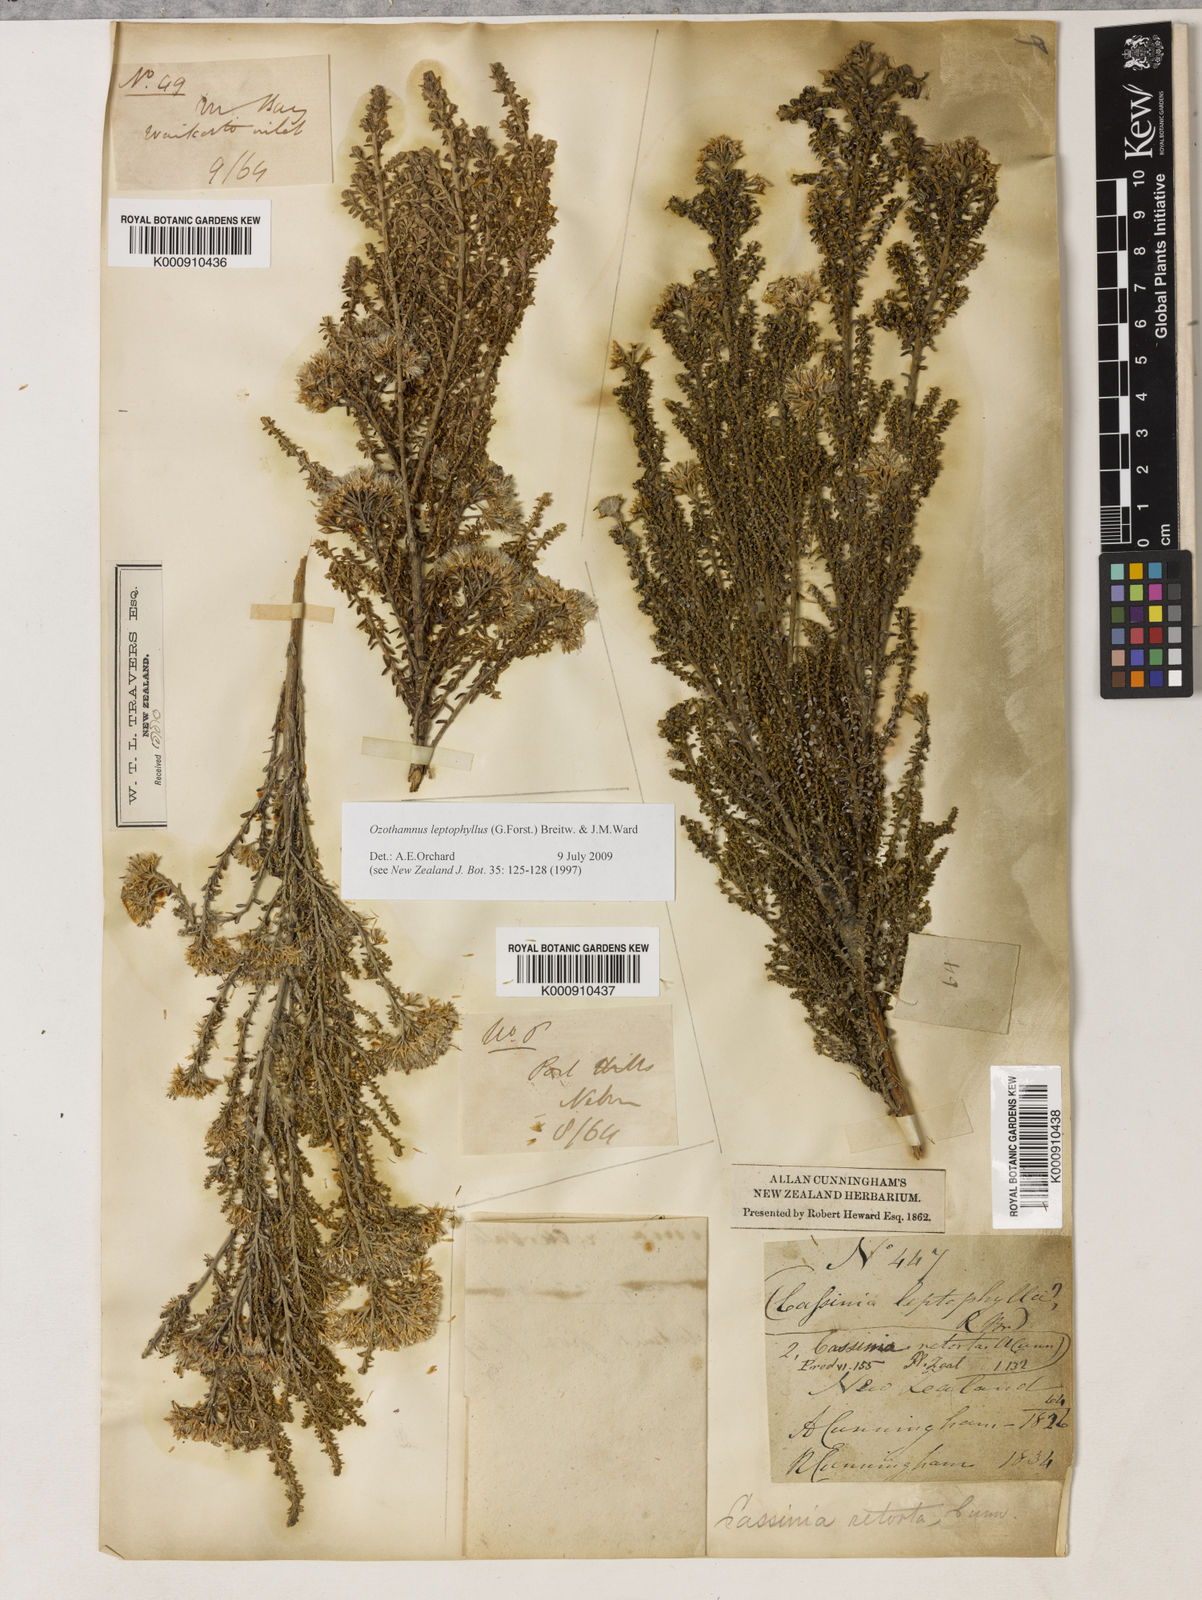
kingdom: Plantae
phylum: Tracheophyta
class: Magnoliopsida
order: Asterales
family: Asteraceae
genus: Ozothamnus
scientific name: Ozothamnus leptophyllus
